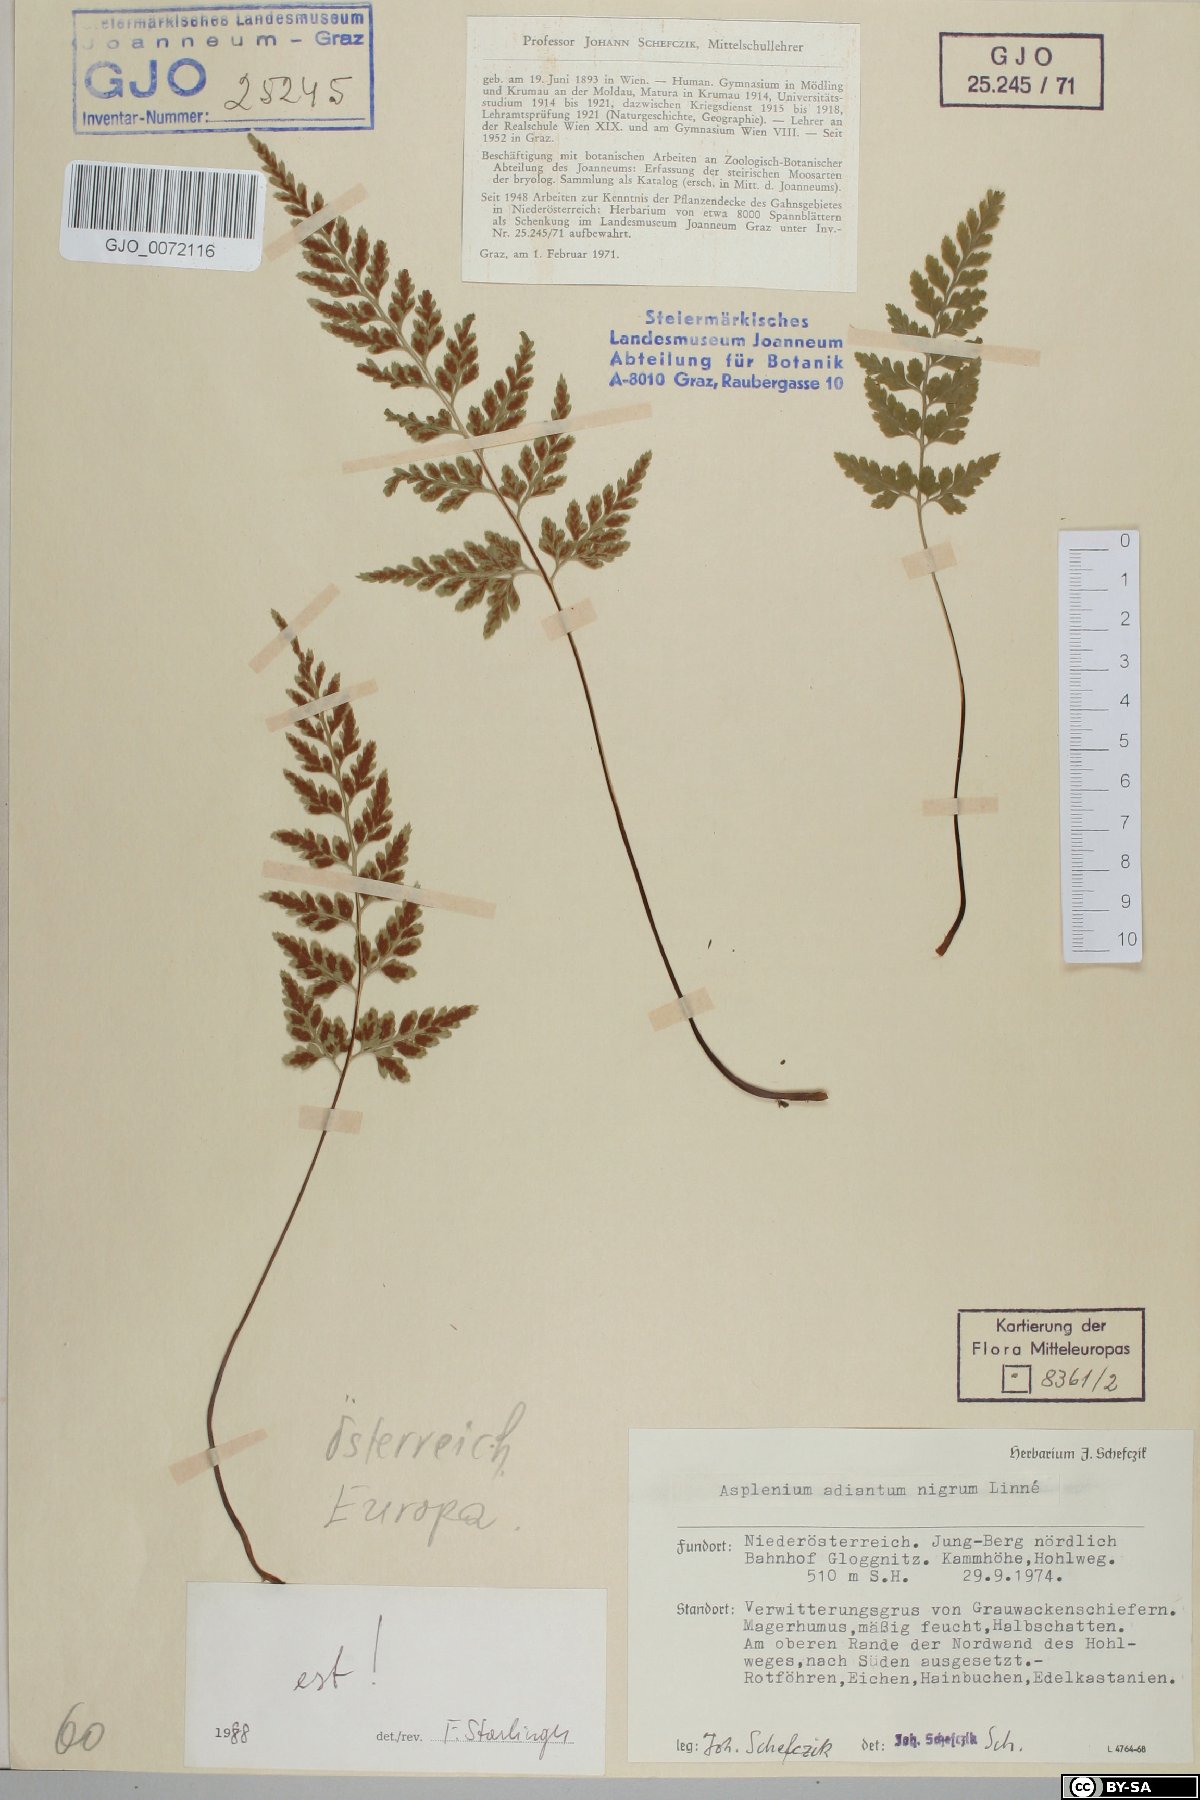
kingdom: Plantae
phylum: Tracheophyta
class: Polypodiopsida
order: Polypodiales
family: Aspleniaceae
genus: Asplenium
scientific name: Asplenium adiantum-nigrum
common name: Black spleenwort
